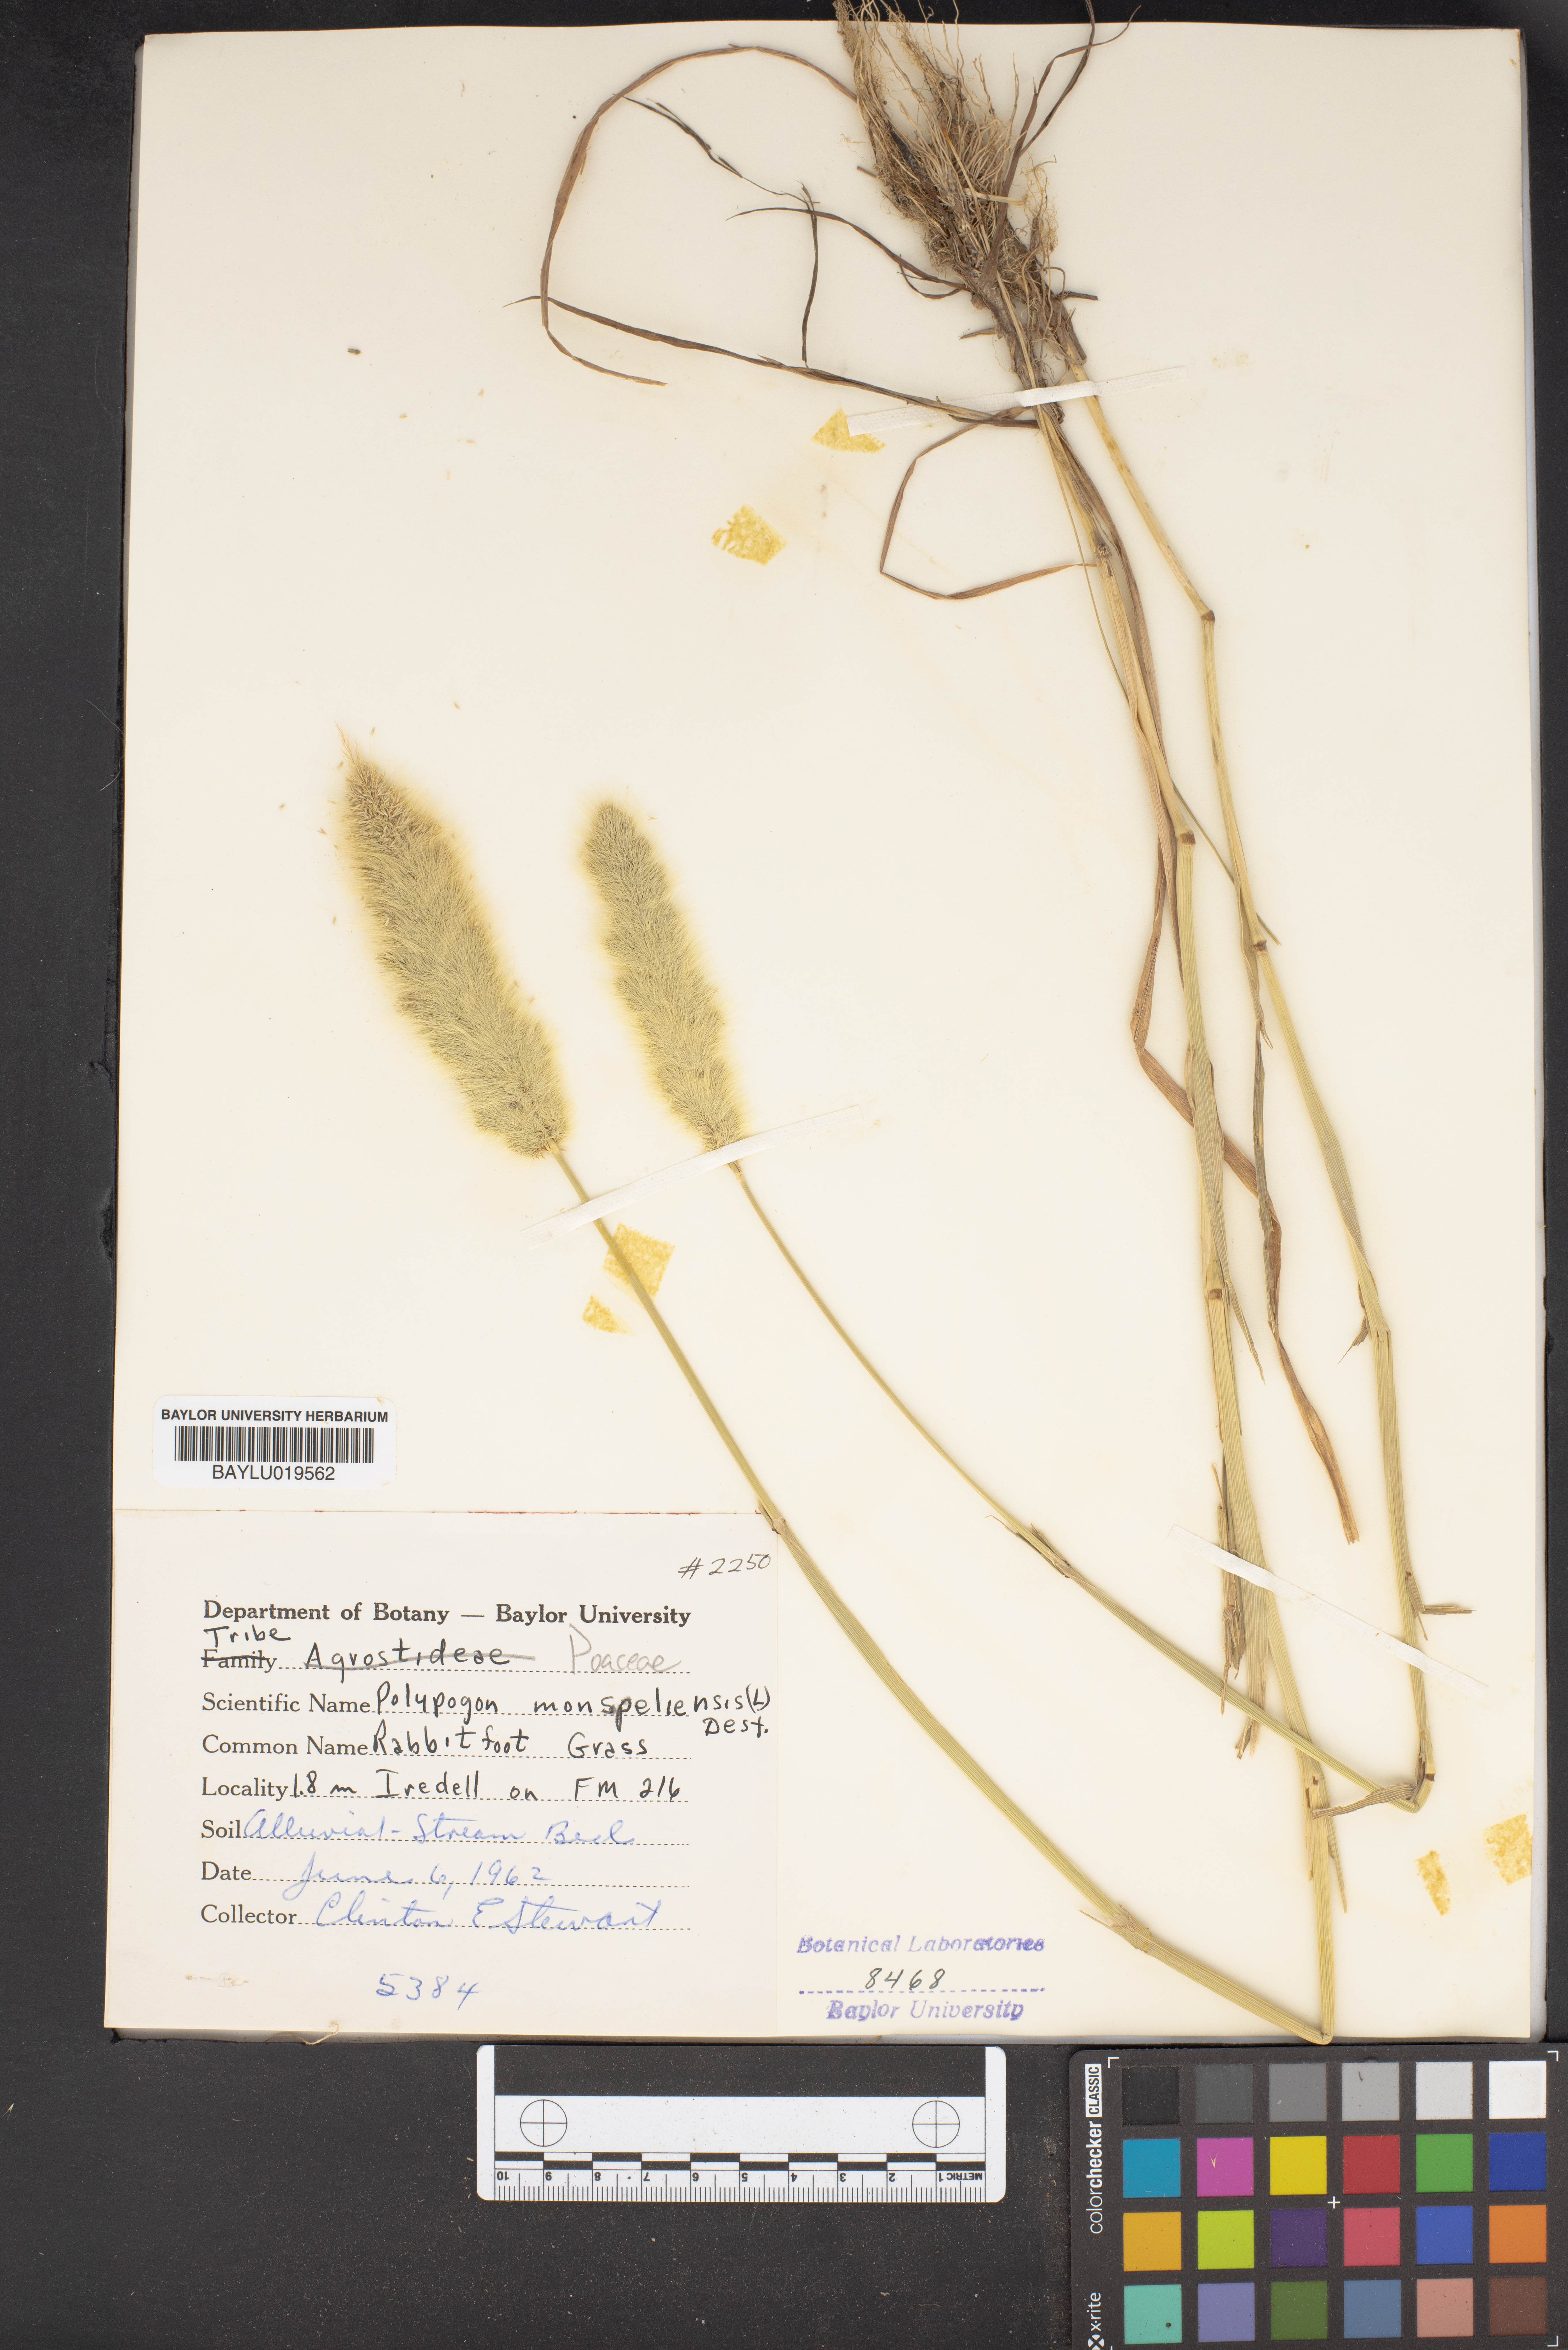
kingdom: Plantae
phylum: Tracheophyta
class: Liliopsida
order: Poales
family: Poaceae
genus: Polypogon
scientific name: Polypogon monspeliensis
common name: Annual rabbitsfoot grass
